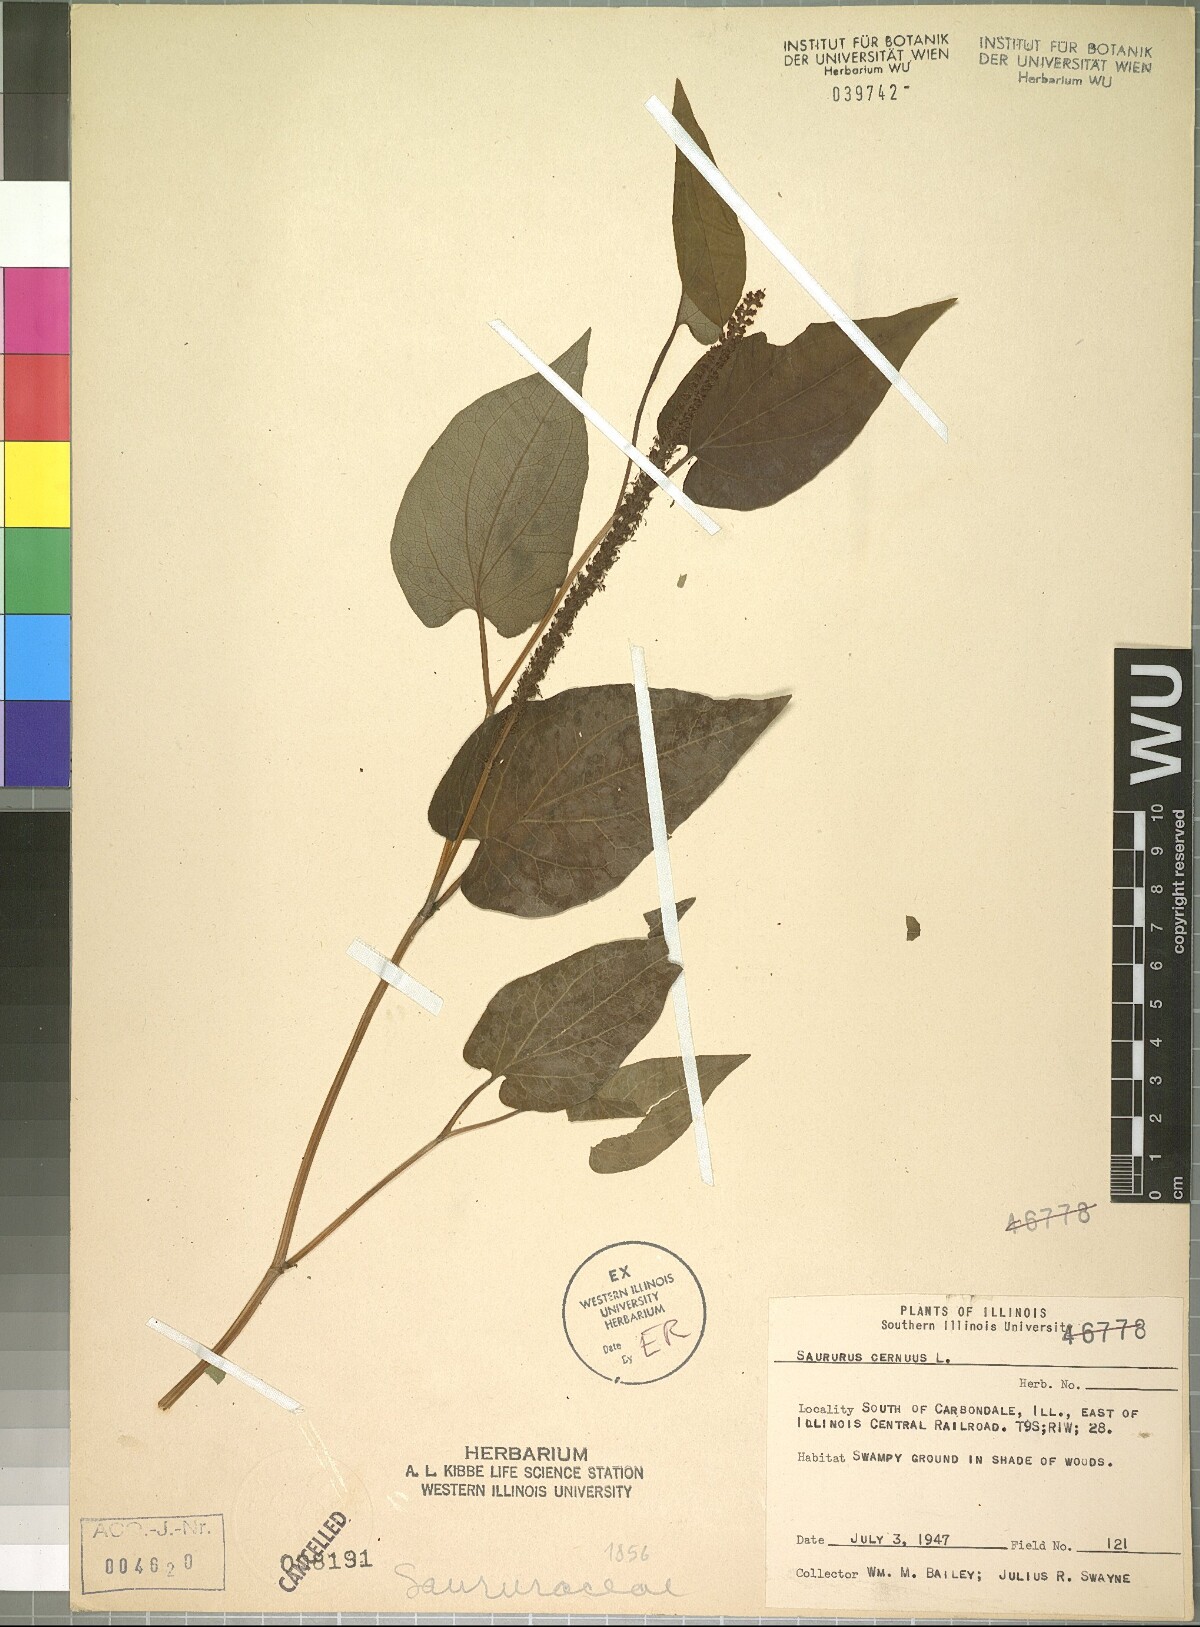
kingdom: Plantae
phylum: Tracheophyta
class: Magnoliopsida
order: Piperales
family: Saururaceae
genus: Saururus
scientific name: Saururus cernuus
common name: Lizard's-tail
